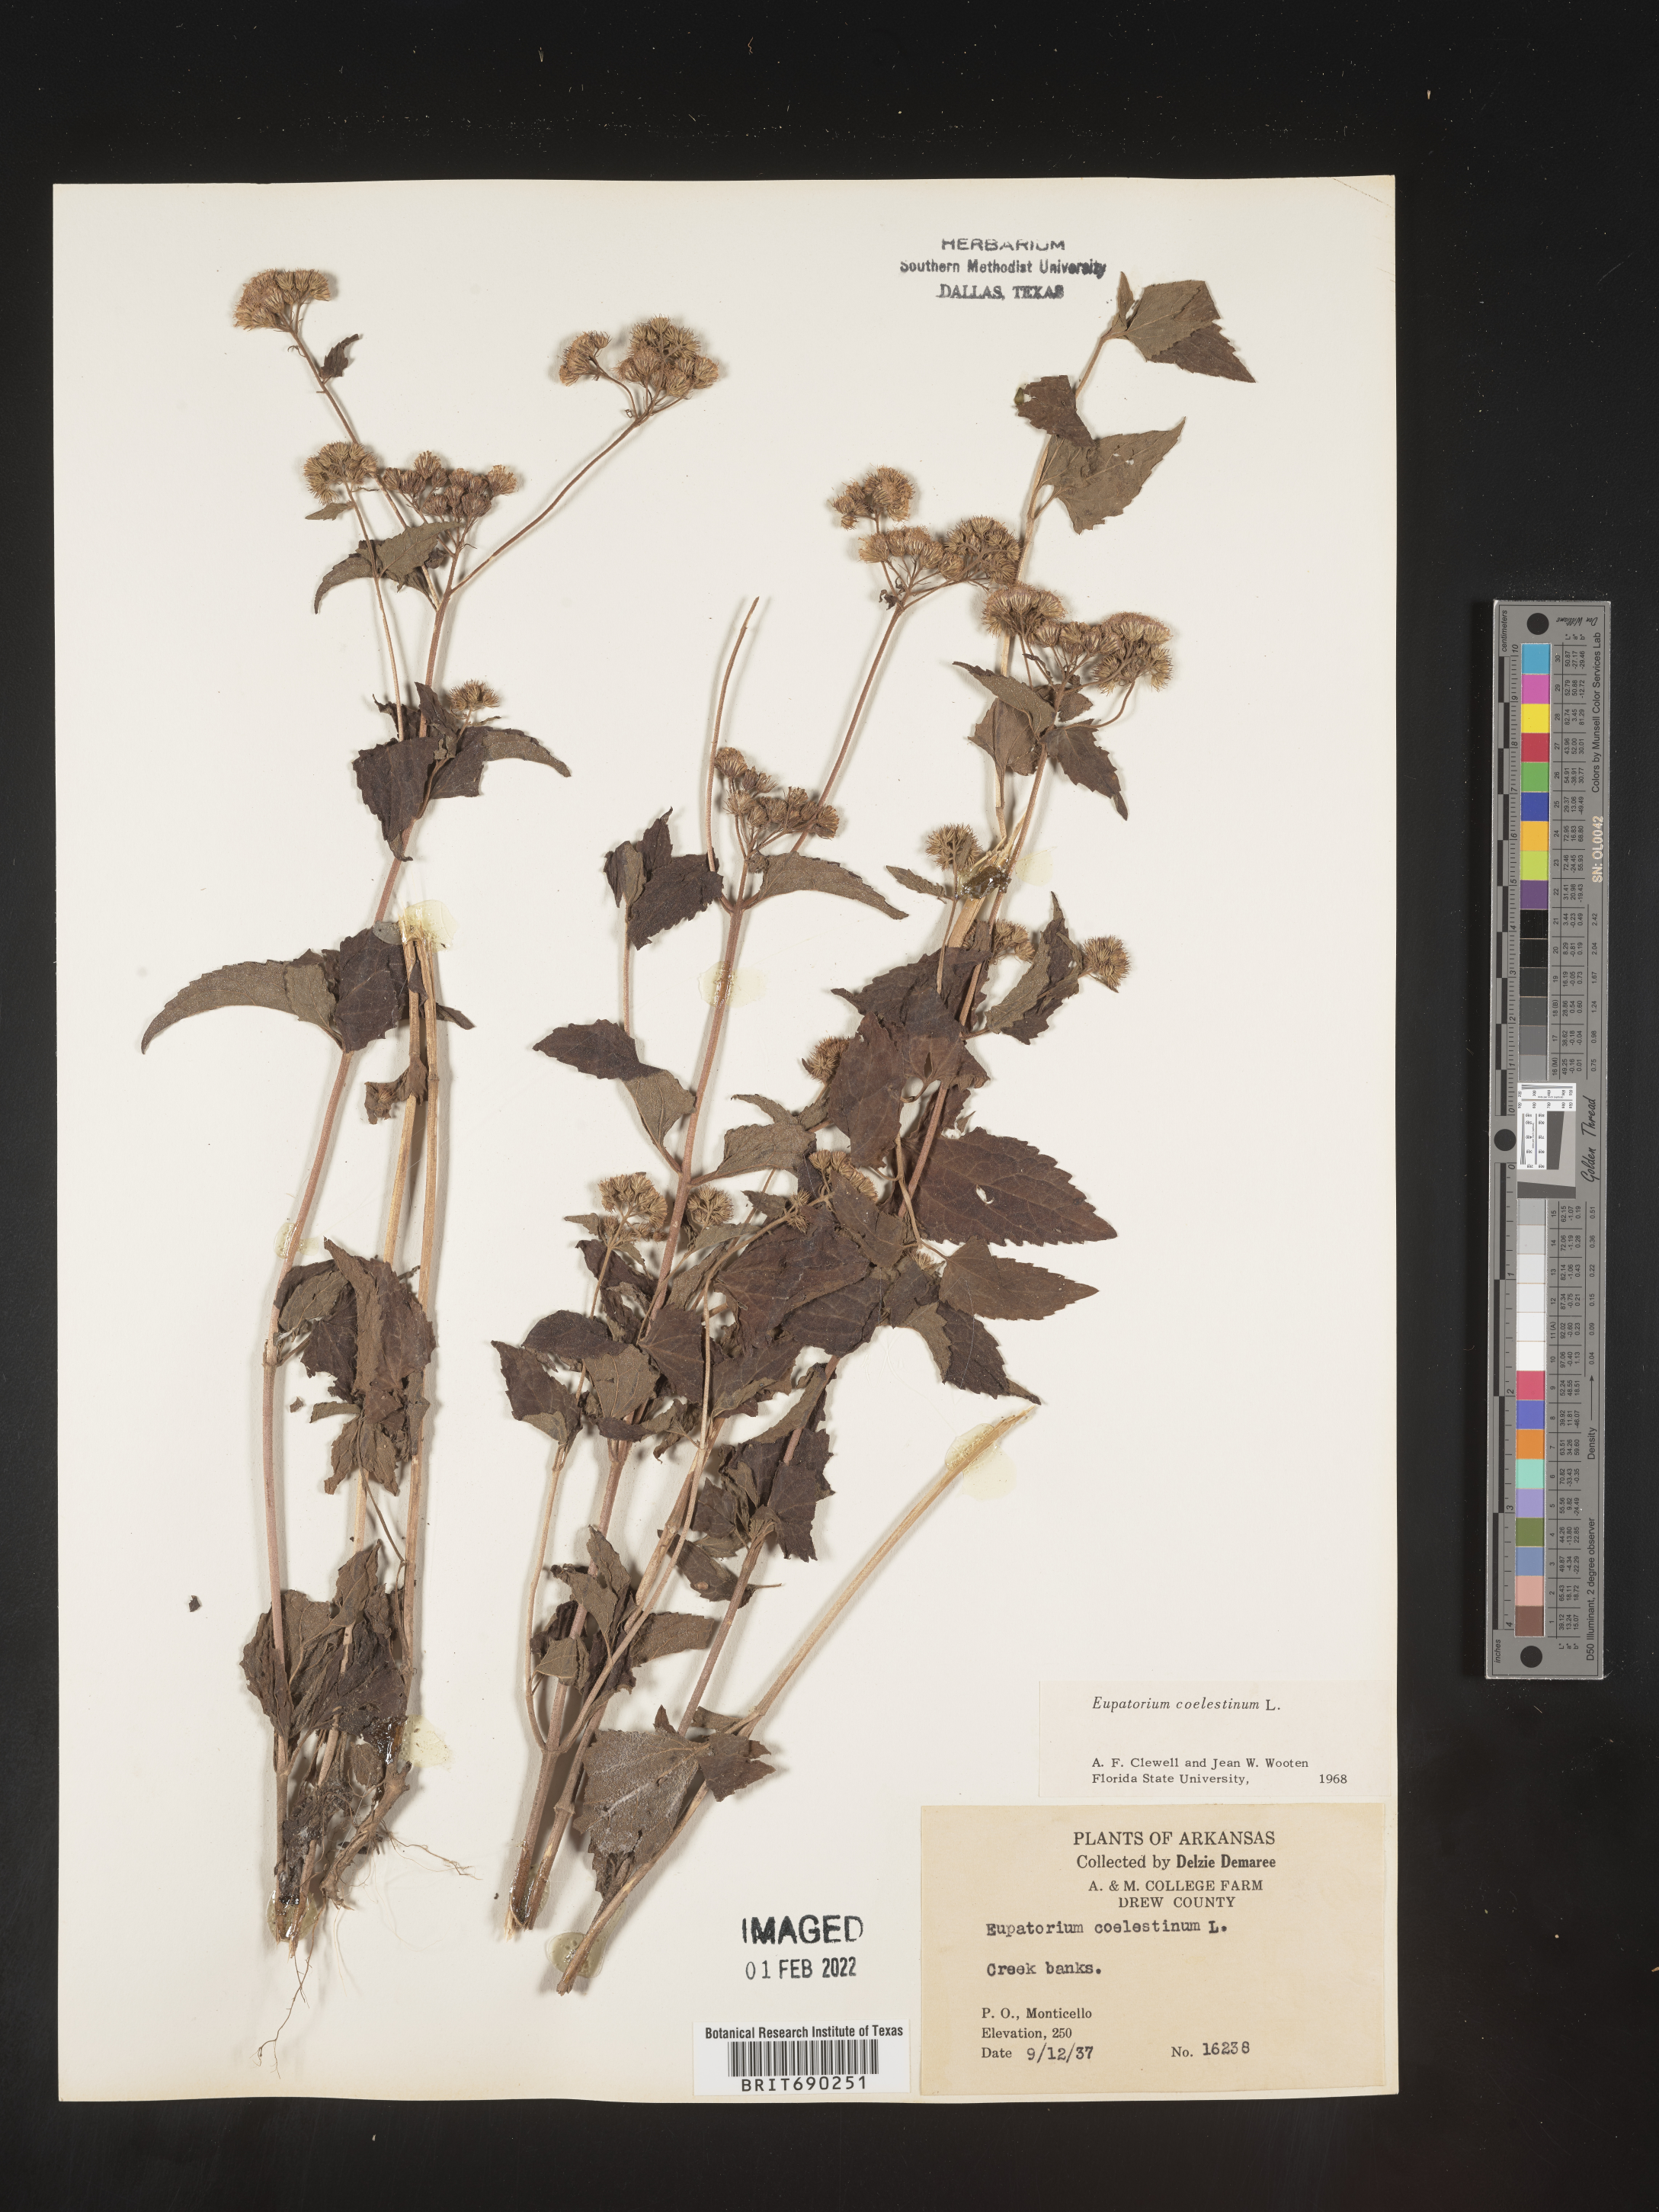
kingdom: Plantae
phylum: Tracheophyta
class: Magnoliopsida
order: Asterales
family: Asteraceae
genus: Conoclinium
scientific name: Conoclinium coelestinum
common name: Blue mistflower
